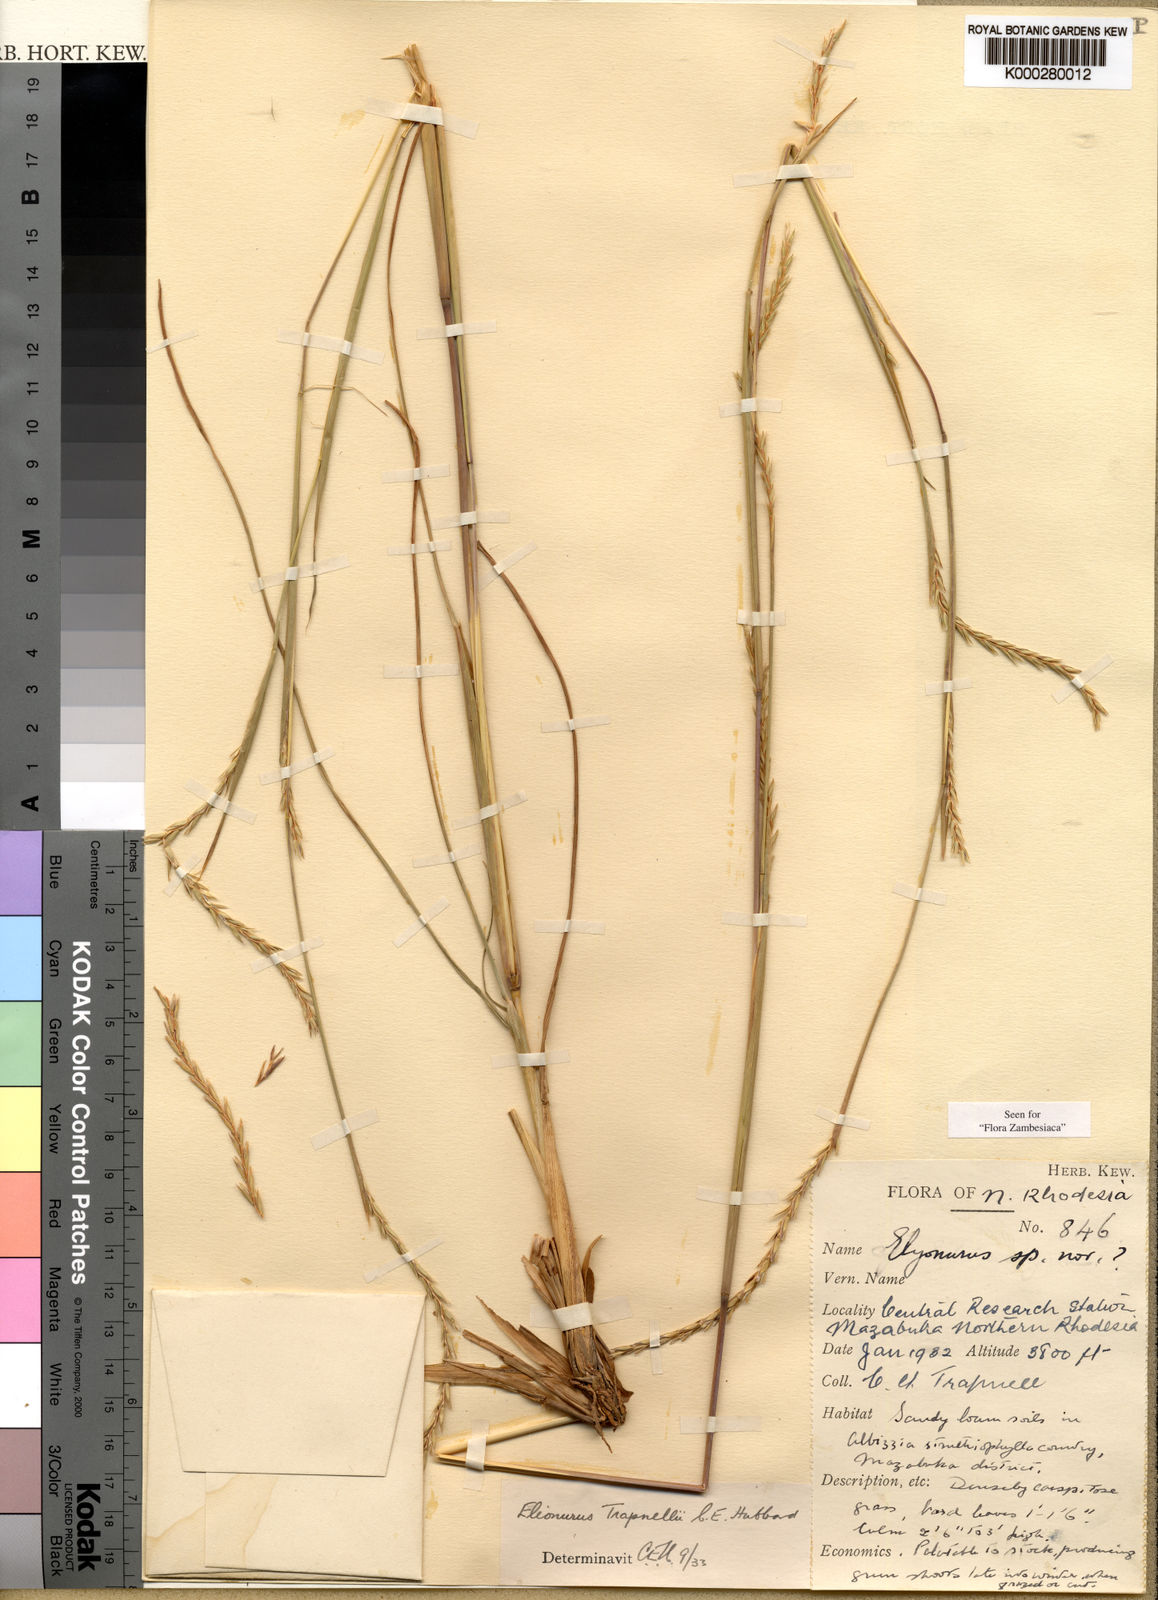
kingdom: Plantae
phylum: Tracheophyta
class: Liliopsida
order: Poales
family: Poaceae
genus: Elionurus
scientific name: Elionurus tripsacoides
